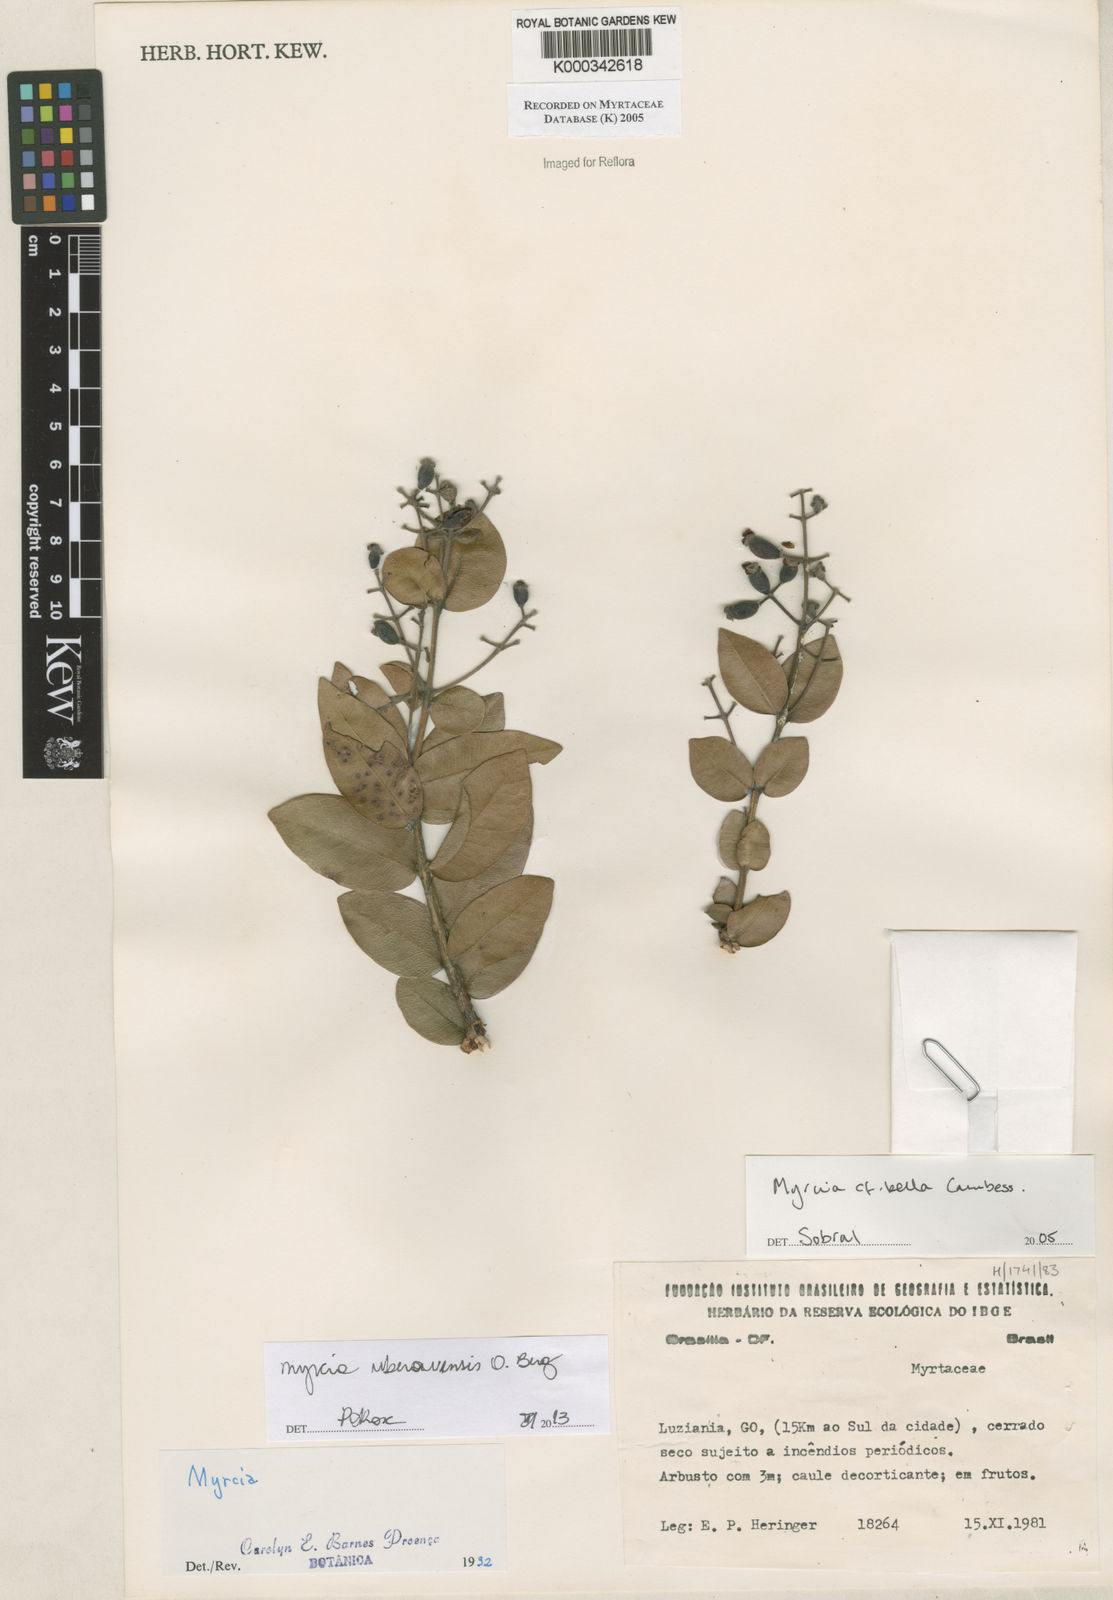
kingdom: Plantae
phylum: Tracheophyta
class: Magnoliopsida
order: Myrtales
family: Myrtaceae
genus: Myrcia
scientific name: Myrcia bella
